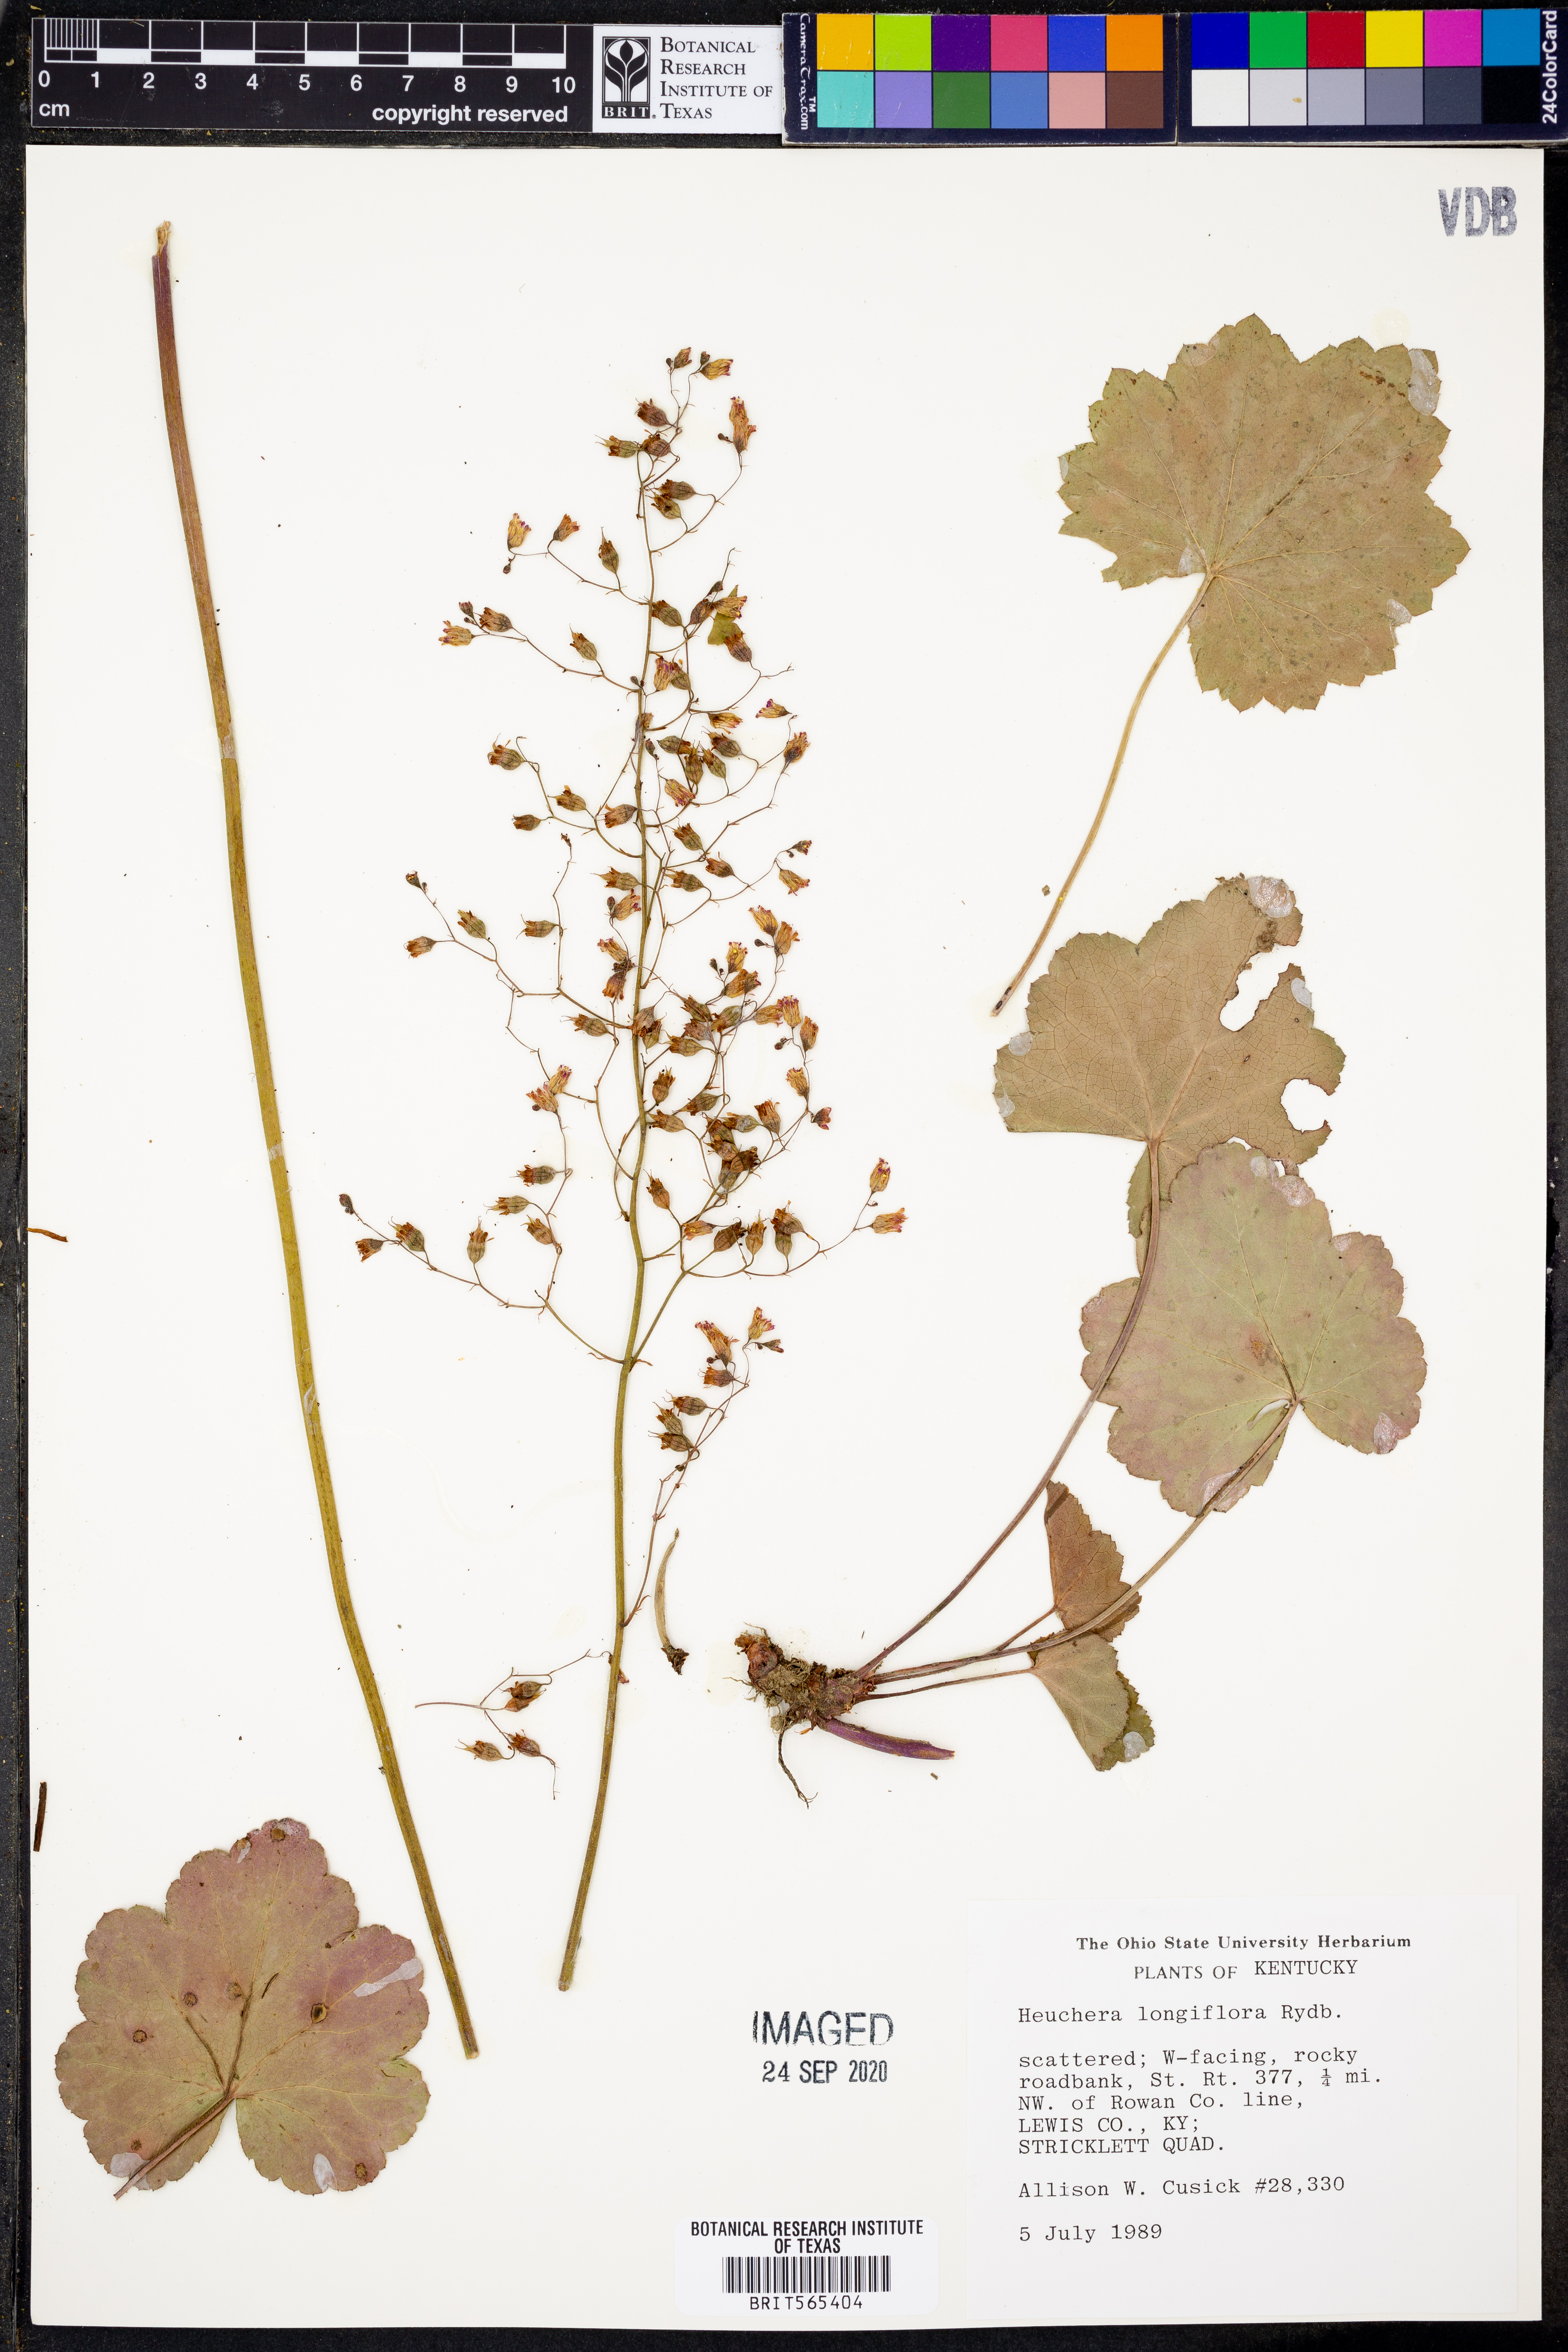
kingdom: Plantae
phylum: Tracheophyta
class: Magnoliopsida
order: Saxifragales
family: Saxifragaceae
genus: Heuchera
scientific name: Heuchera longiflora
